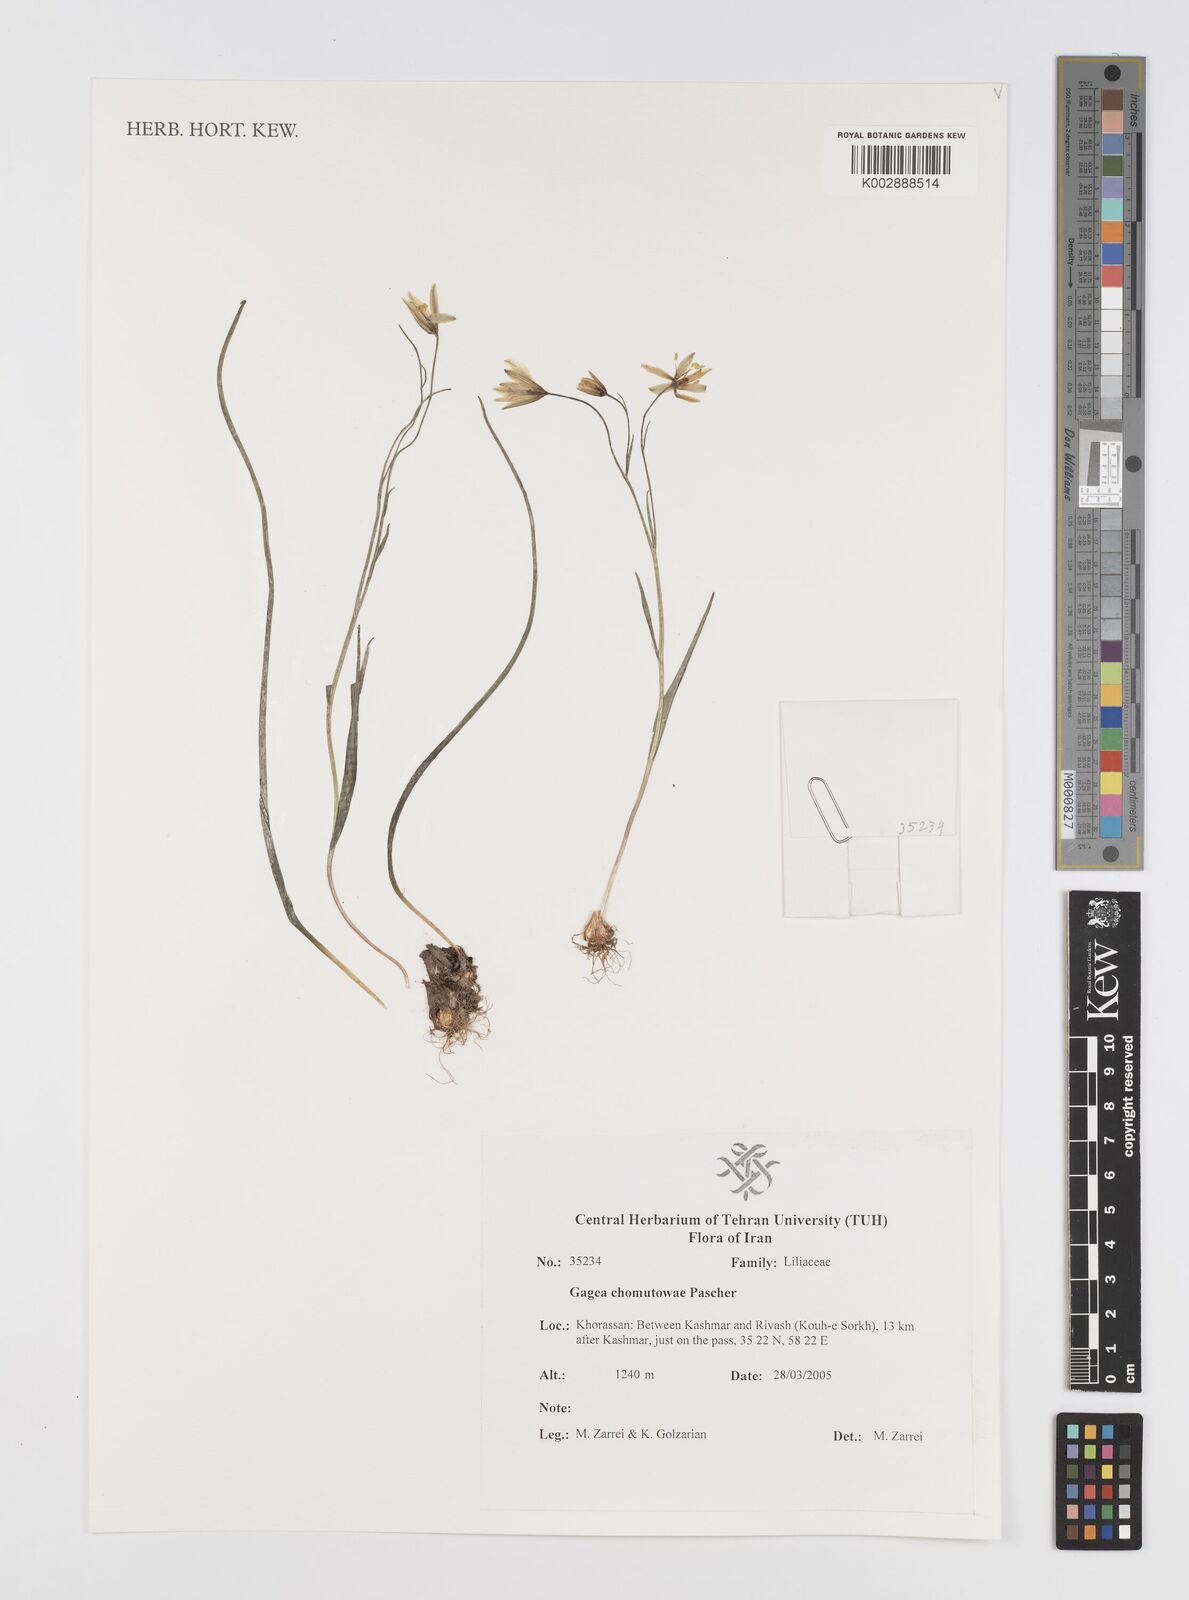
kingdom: Plantae
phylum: Tracheophyta
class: Liliopsida
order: Liliales
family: Liliaceae
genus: Gagea
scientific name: Gagea chomutovae
